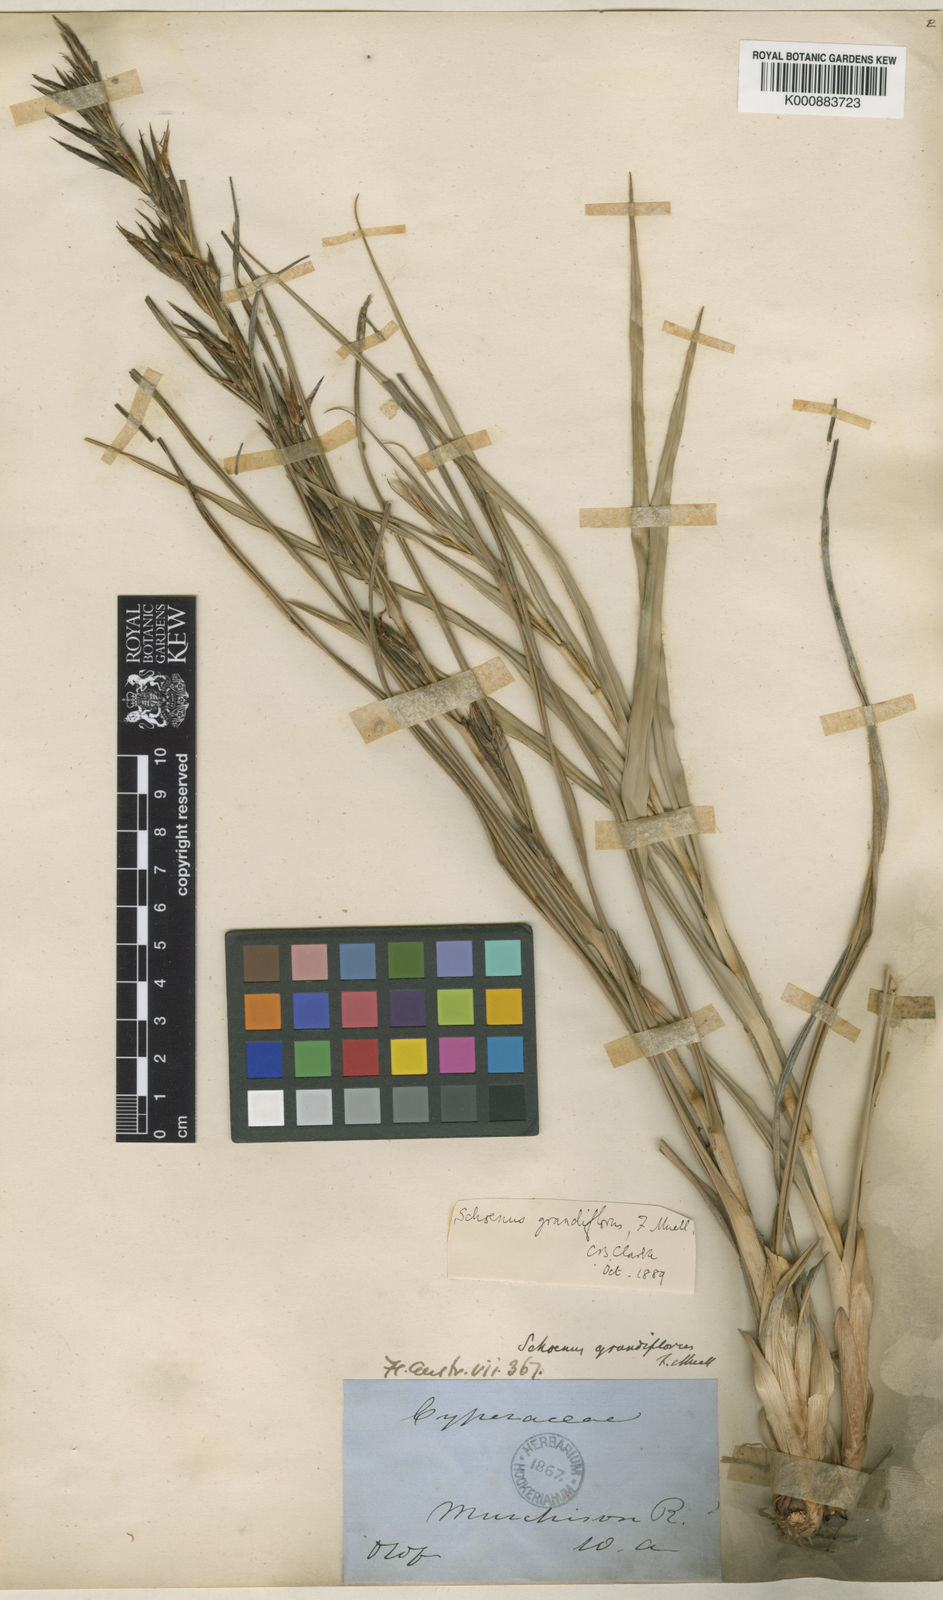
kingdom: Plantae
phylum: Tracheophyta
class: Liliopsida
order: Poales
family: Cyperaceae
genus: Schoenus
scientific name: Schoenus grandiflorus
